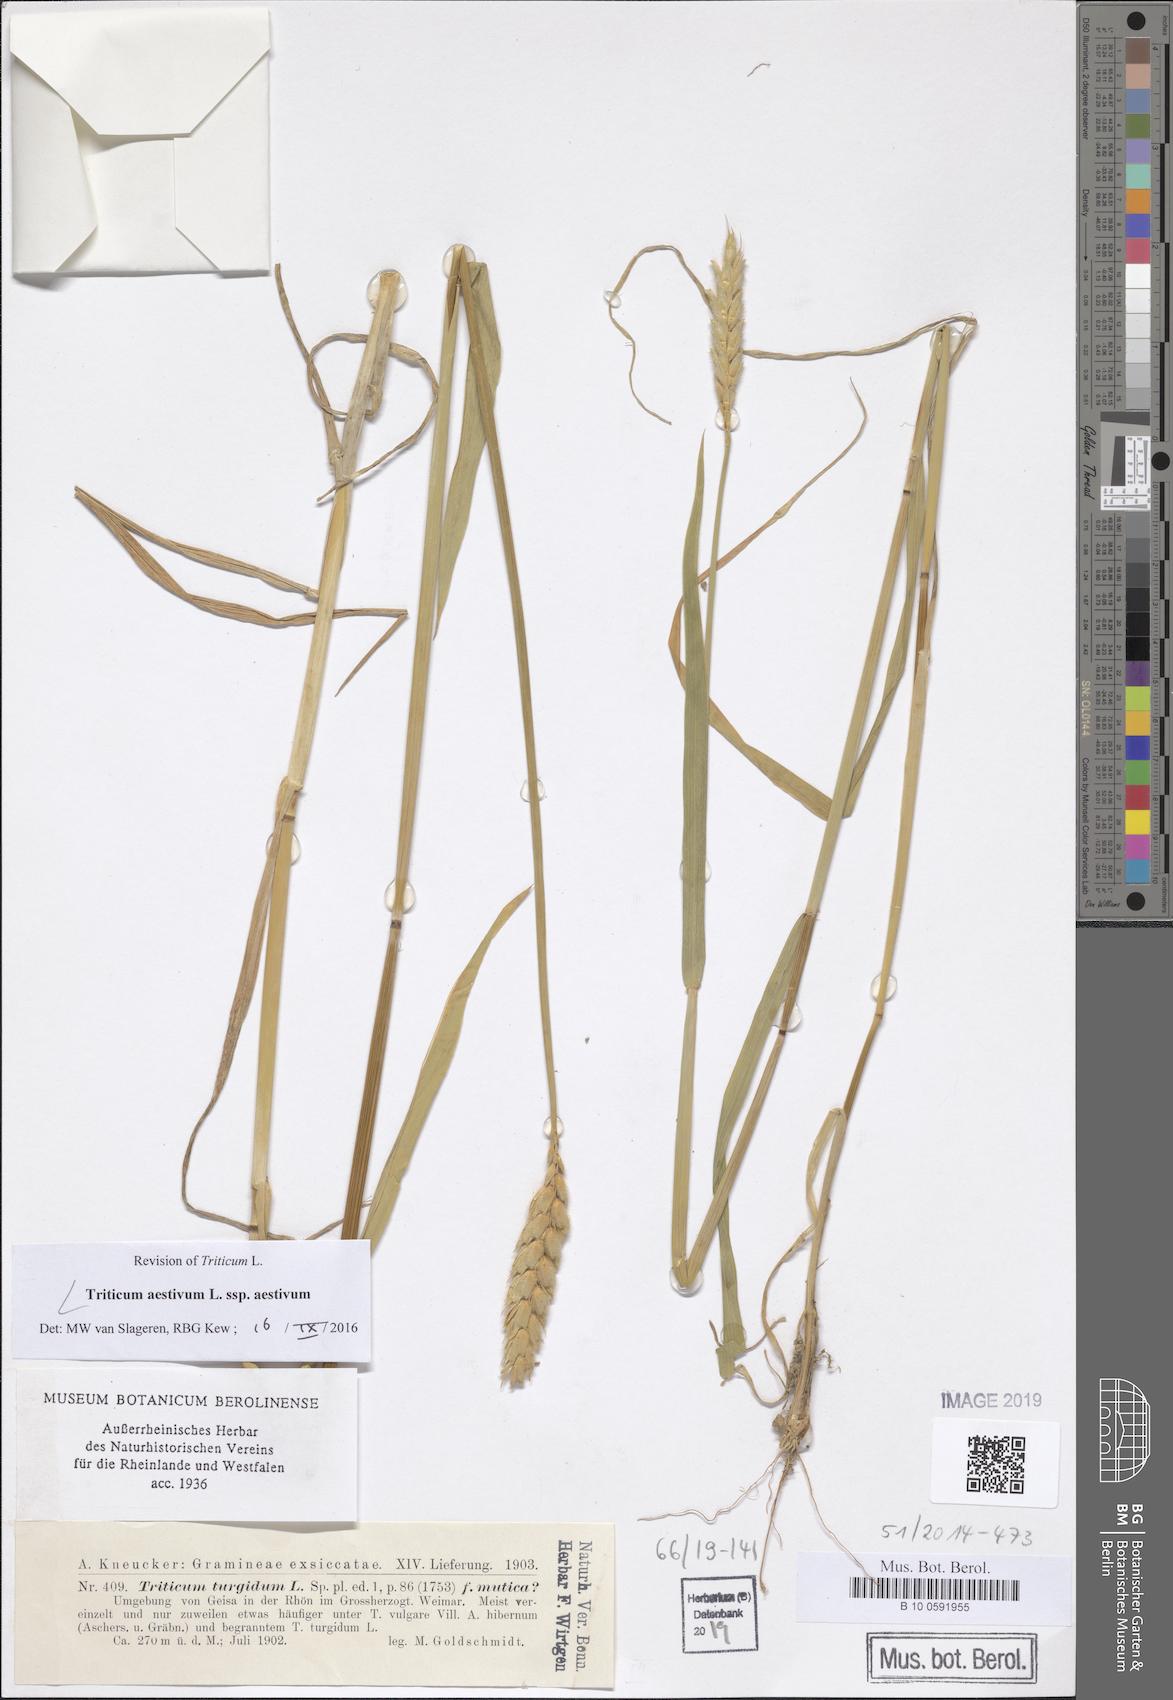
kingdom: Plantae
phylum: Tracheophyta
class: Liliopsida
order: Poales
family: Poaceae
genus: Triticum
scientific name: Triticum aestivum
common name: Common wheat
